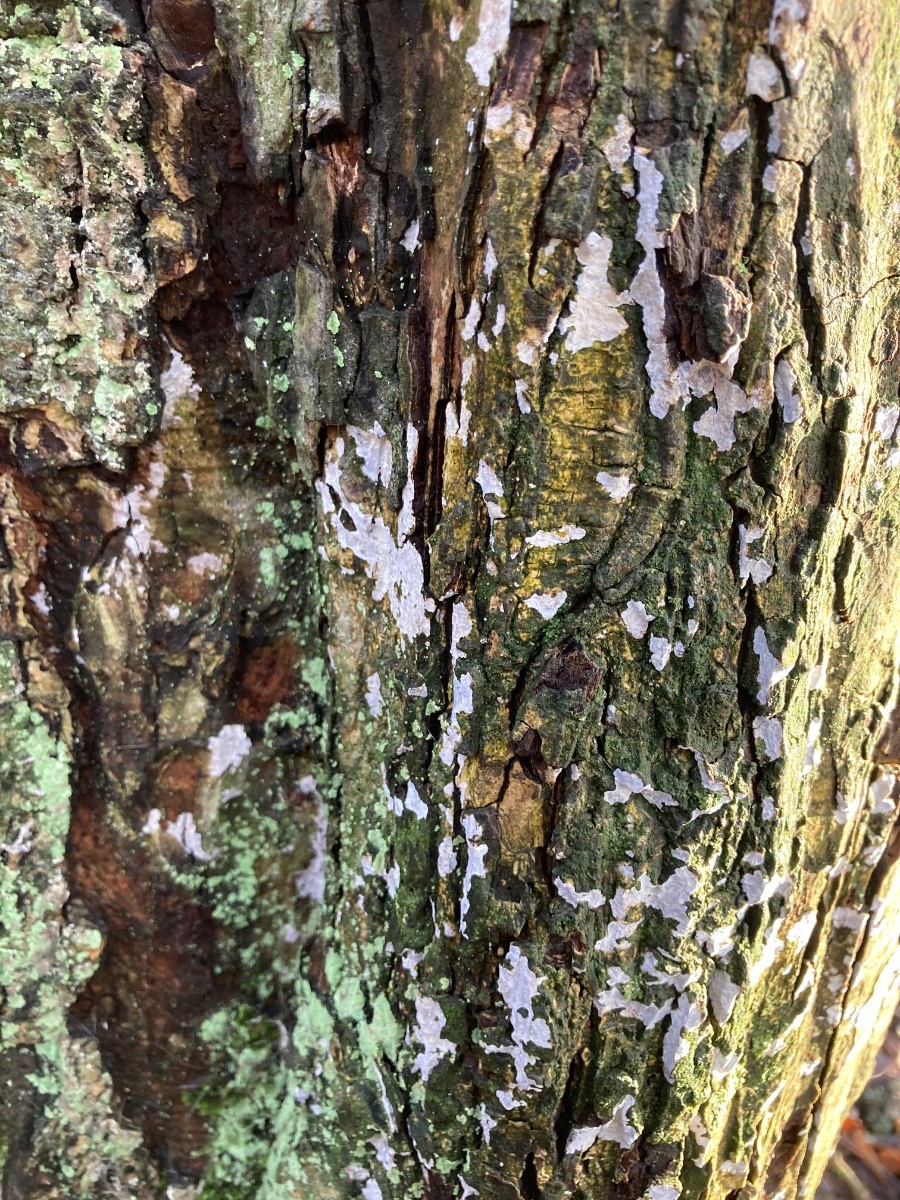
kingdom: Fungi
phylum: Basidiomycota
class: Agaricomycetes
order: Agaricales
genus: Dendrothele
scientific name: Dendrothele acerina
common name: navr-kalkplet
